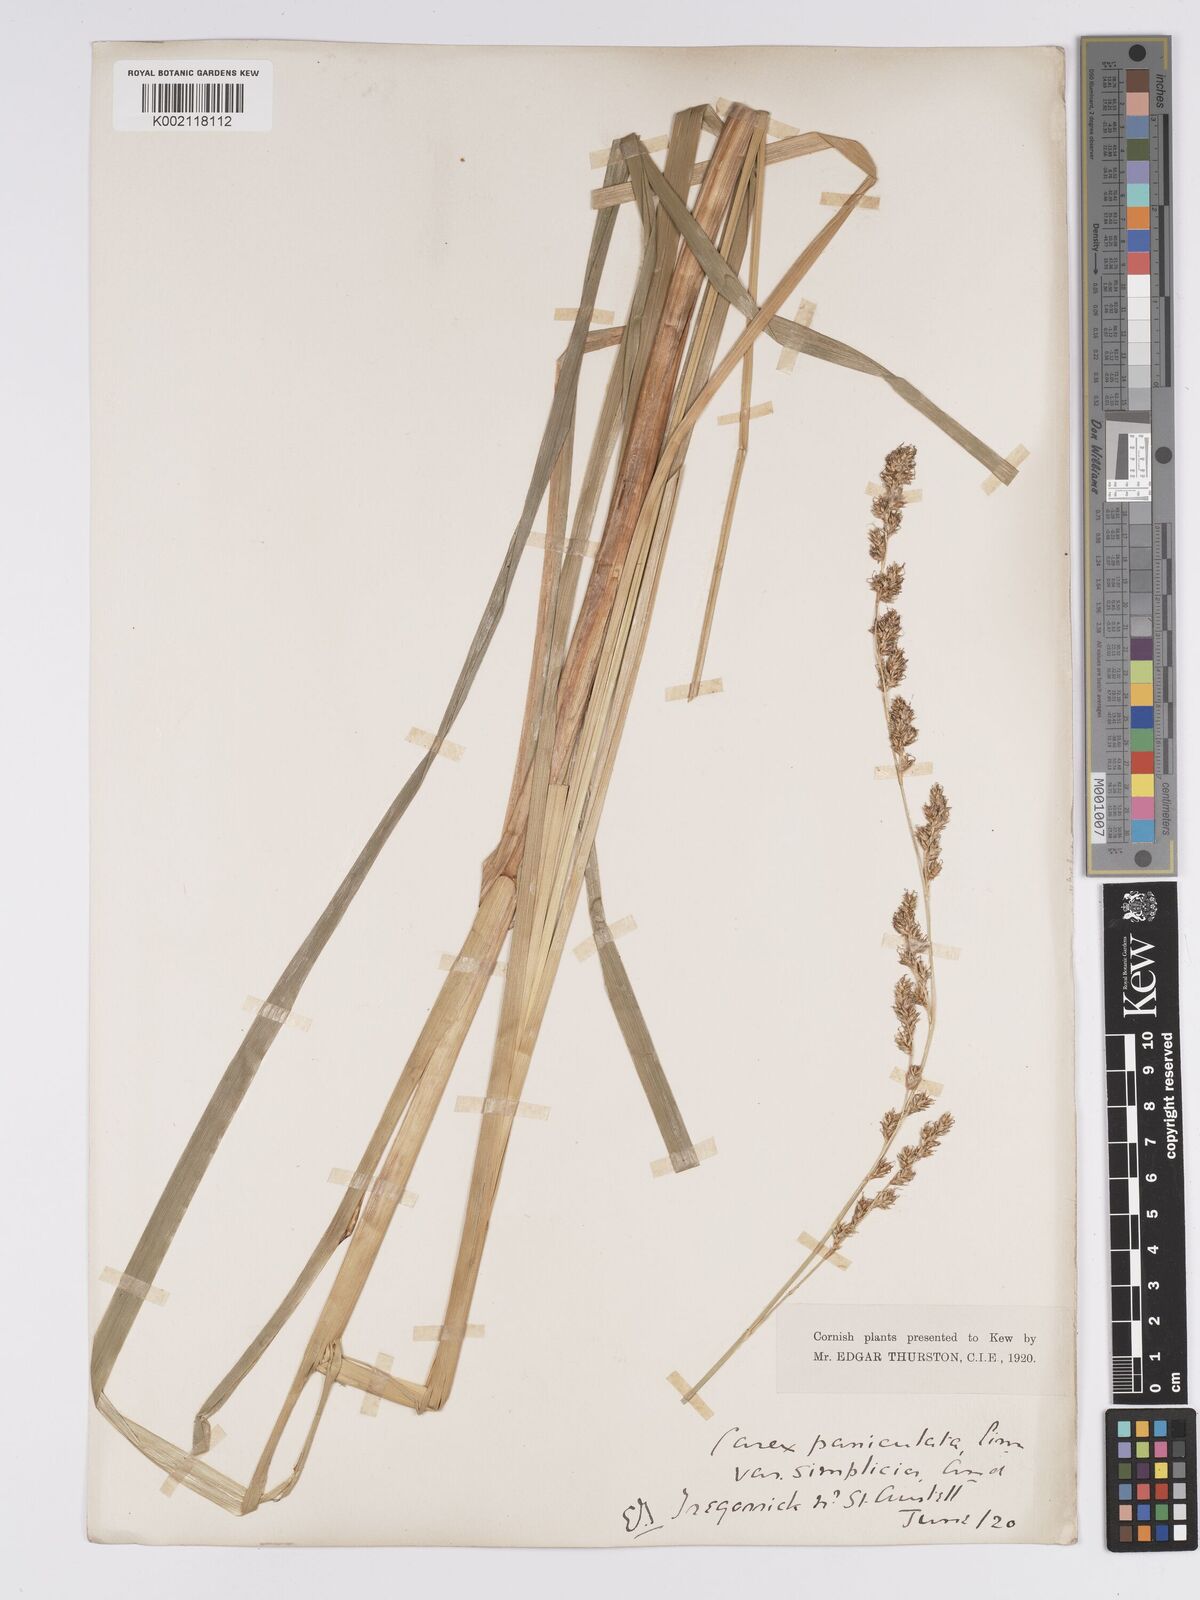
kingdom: Plantae
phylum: Tracheophyta
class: Liliopsida
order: Poales
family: Cyperaceae
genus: Carex
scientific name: Carex paniculata
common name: Greater tussock-sedge
